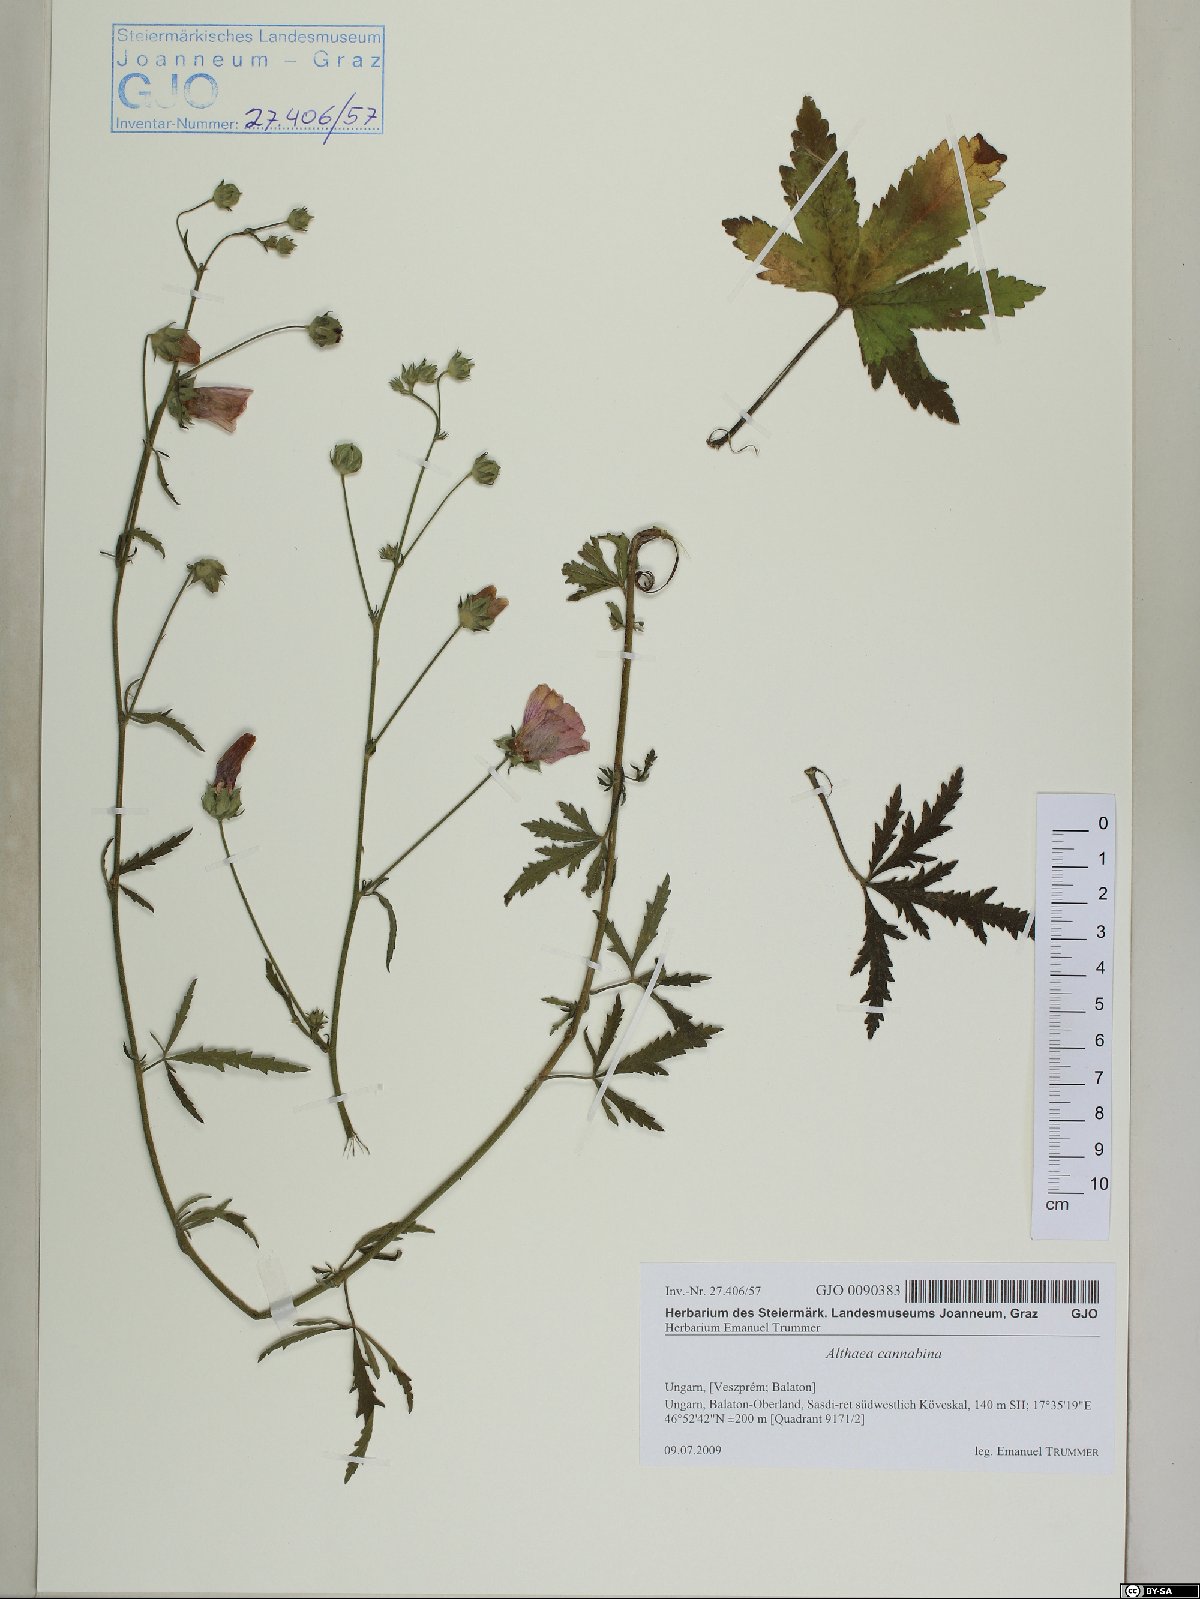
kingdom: Plantae
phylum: Tracheophyta
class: Magnoliopsida
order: Malvales
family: Malvaceae
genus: Althaea
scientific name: Althaea cannabina
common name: Palm-leaf marshmallow
